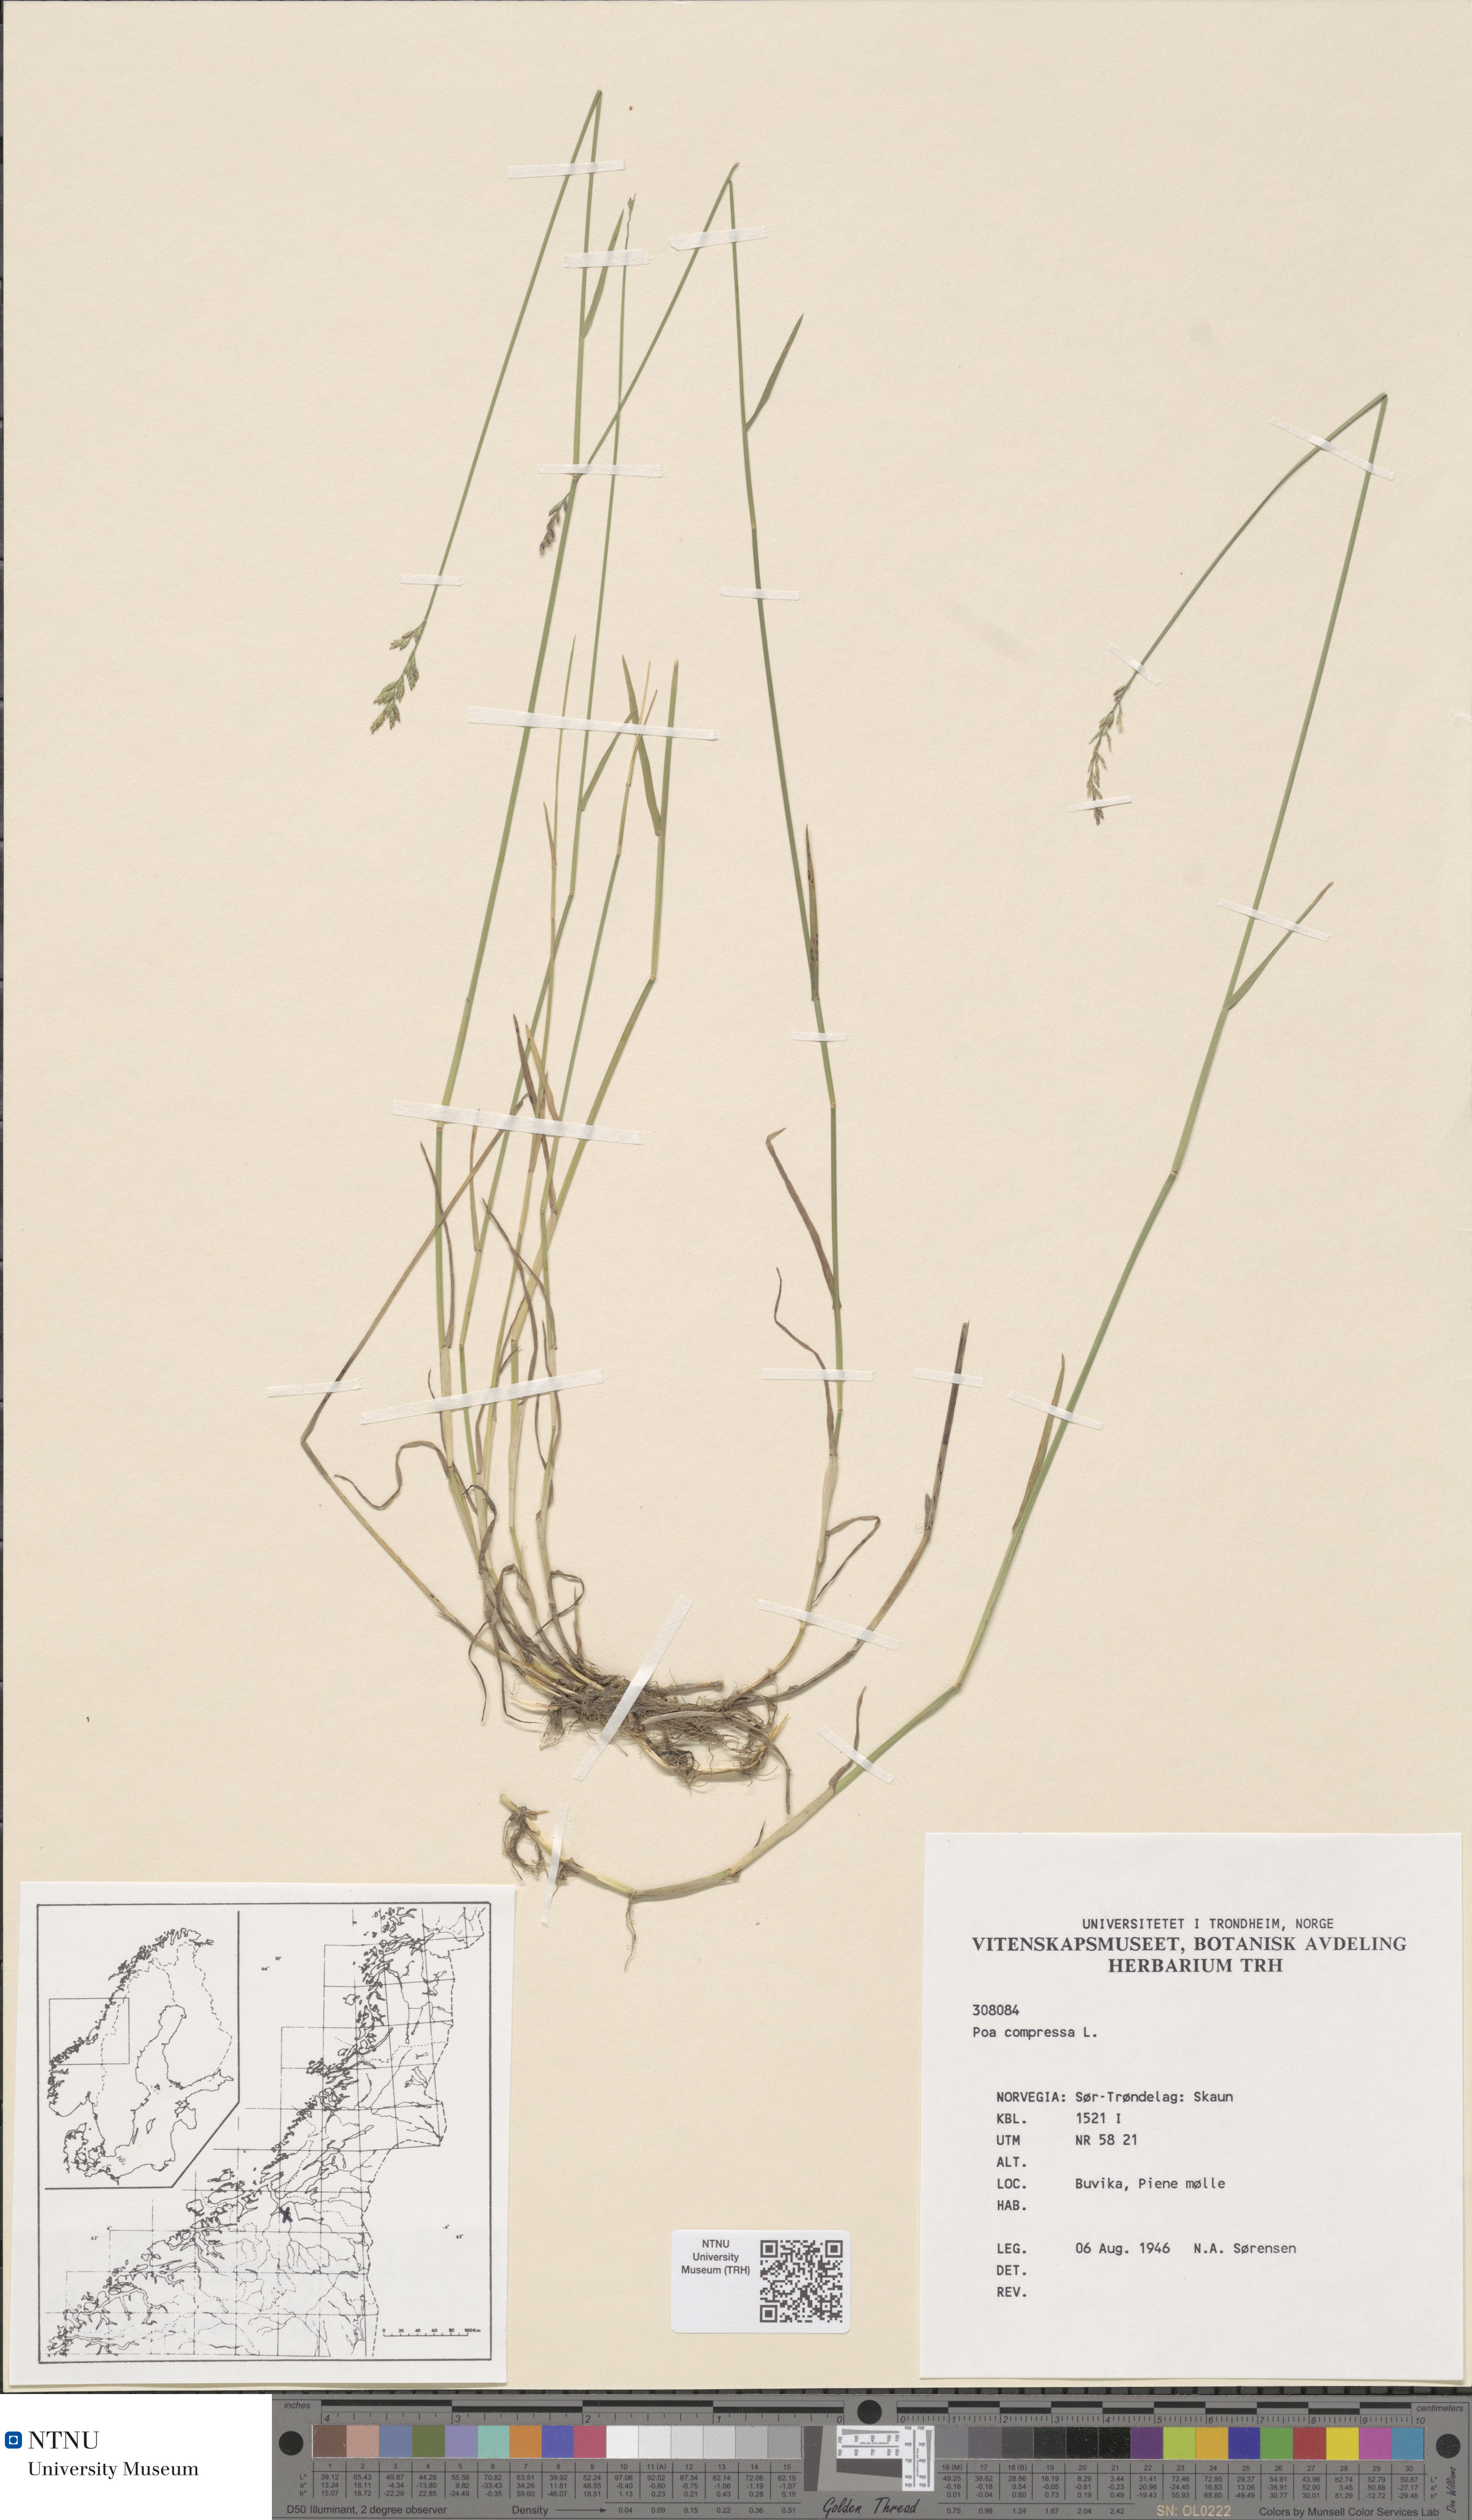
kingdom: Plantae
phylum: Tracheophyta
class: Liliopsida
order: Poales
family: Poaceae
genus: Poa
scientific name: Poa compressa
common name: Canada bluegrass
